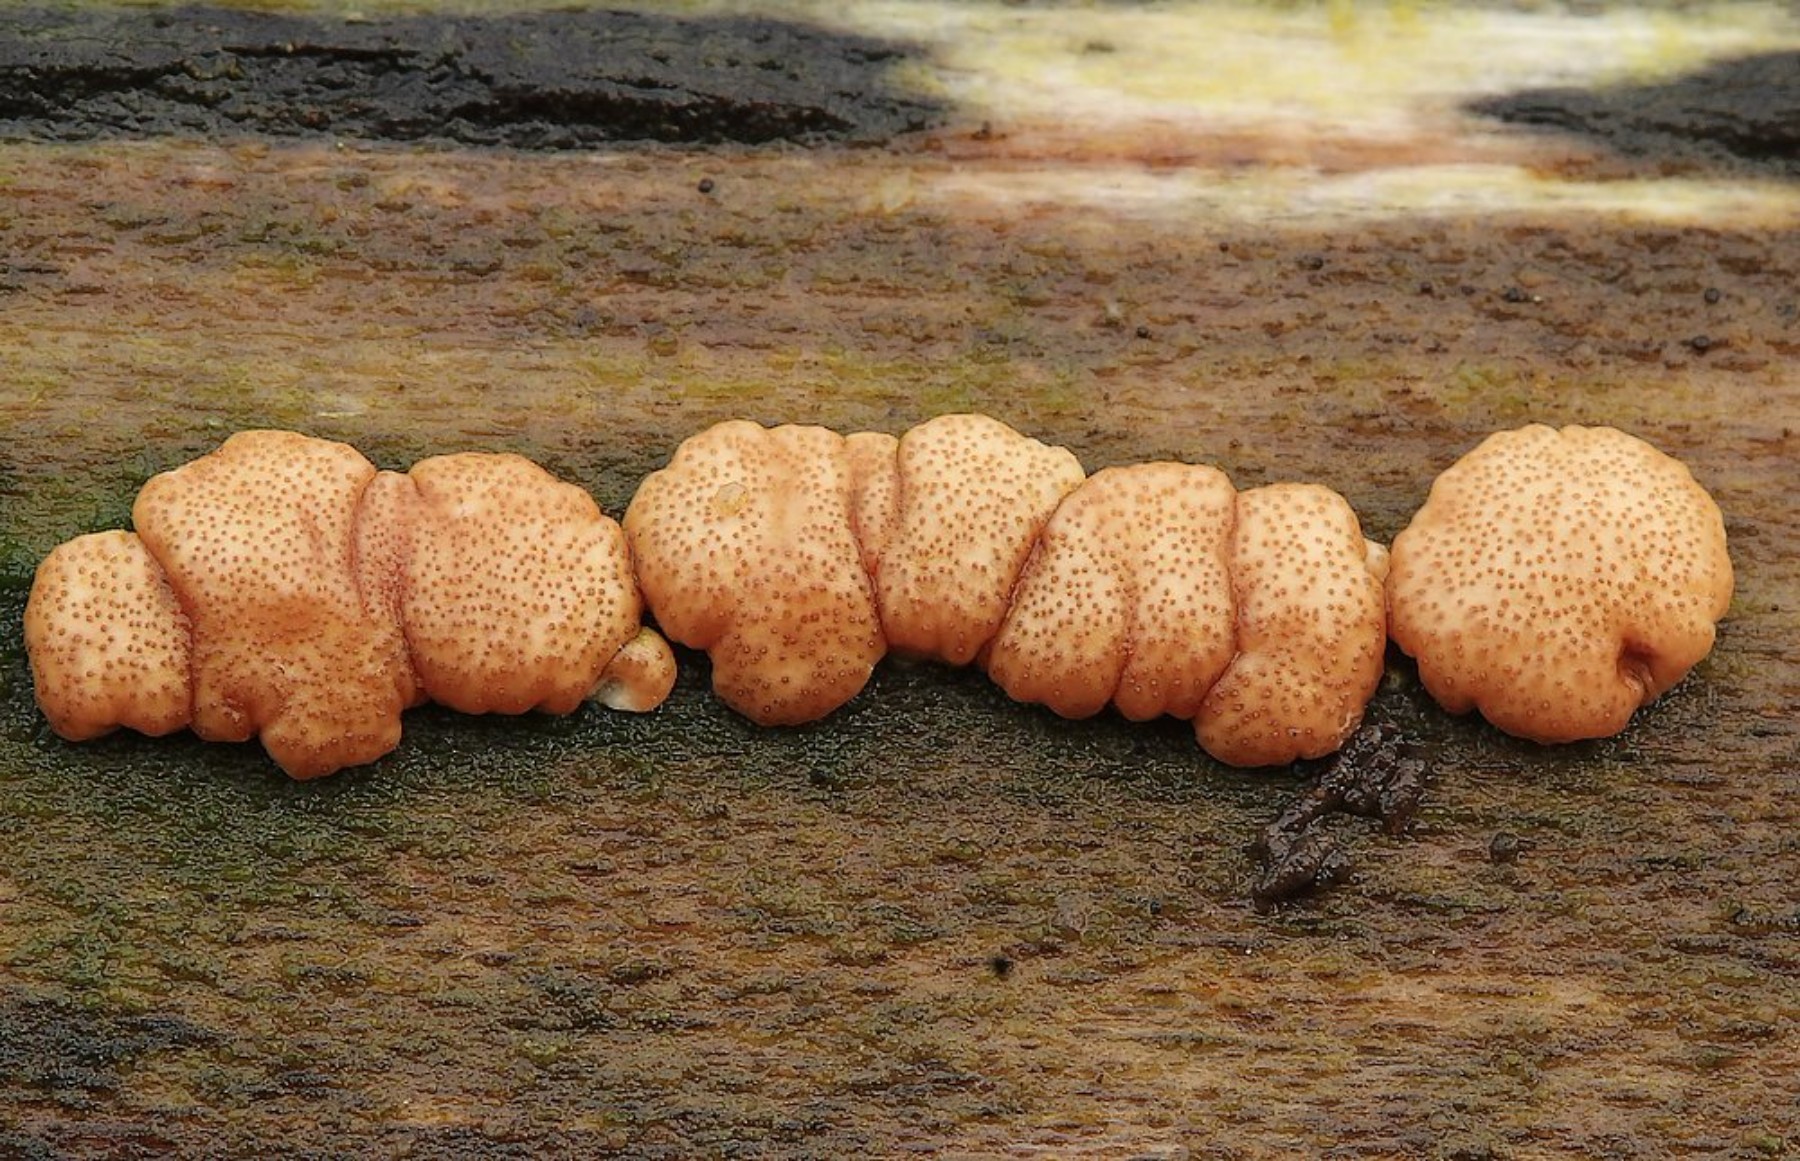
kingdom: Fungi
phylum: Ascomycota
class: Sordariomycetes
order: Hypocreales
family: Hypocreaceae
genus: Trichoderma
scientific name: Trichoderma europaeum
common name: rosabrun kødkerne
